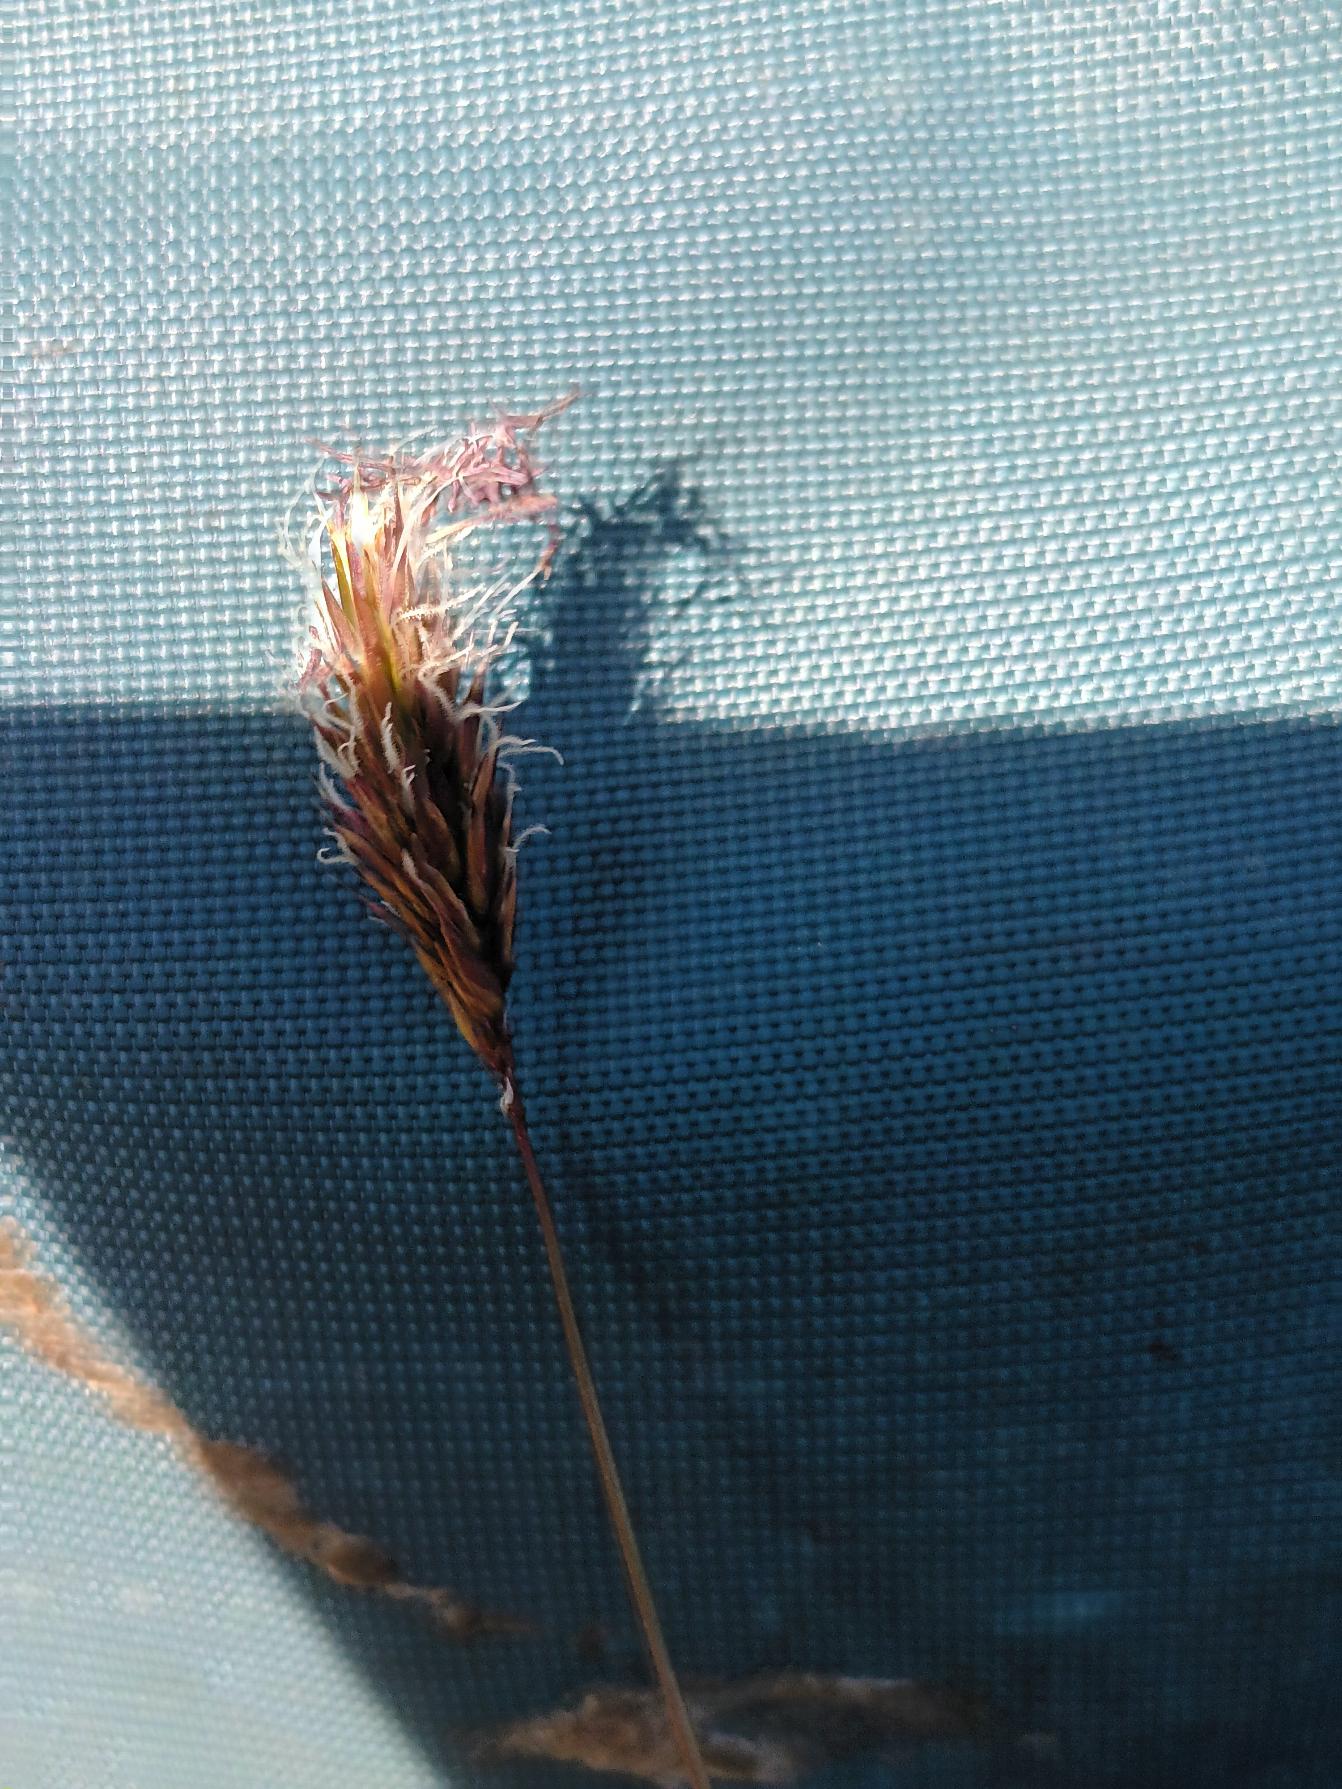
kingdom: Plantae
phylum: Tracheophyta
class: Liliopsida
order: Poales
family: Poaceae
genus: Anthoxanthum
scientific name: Anthoxanthum odoratum
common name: Vellugtende gulaks
